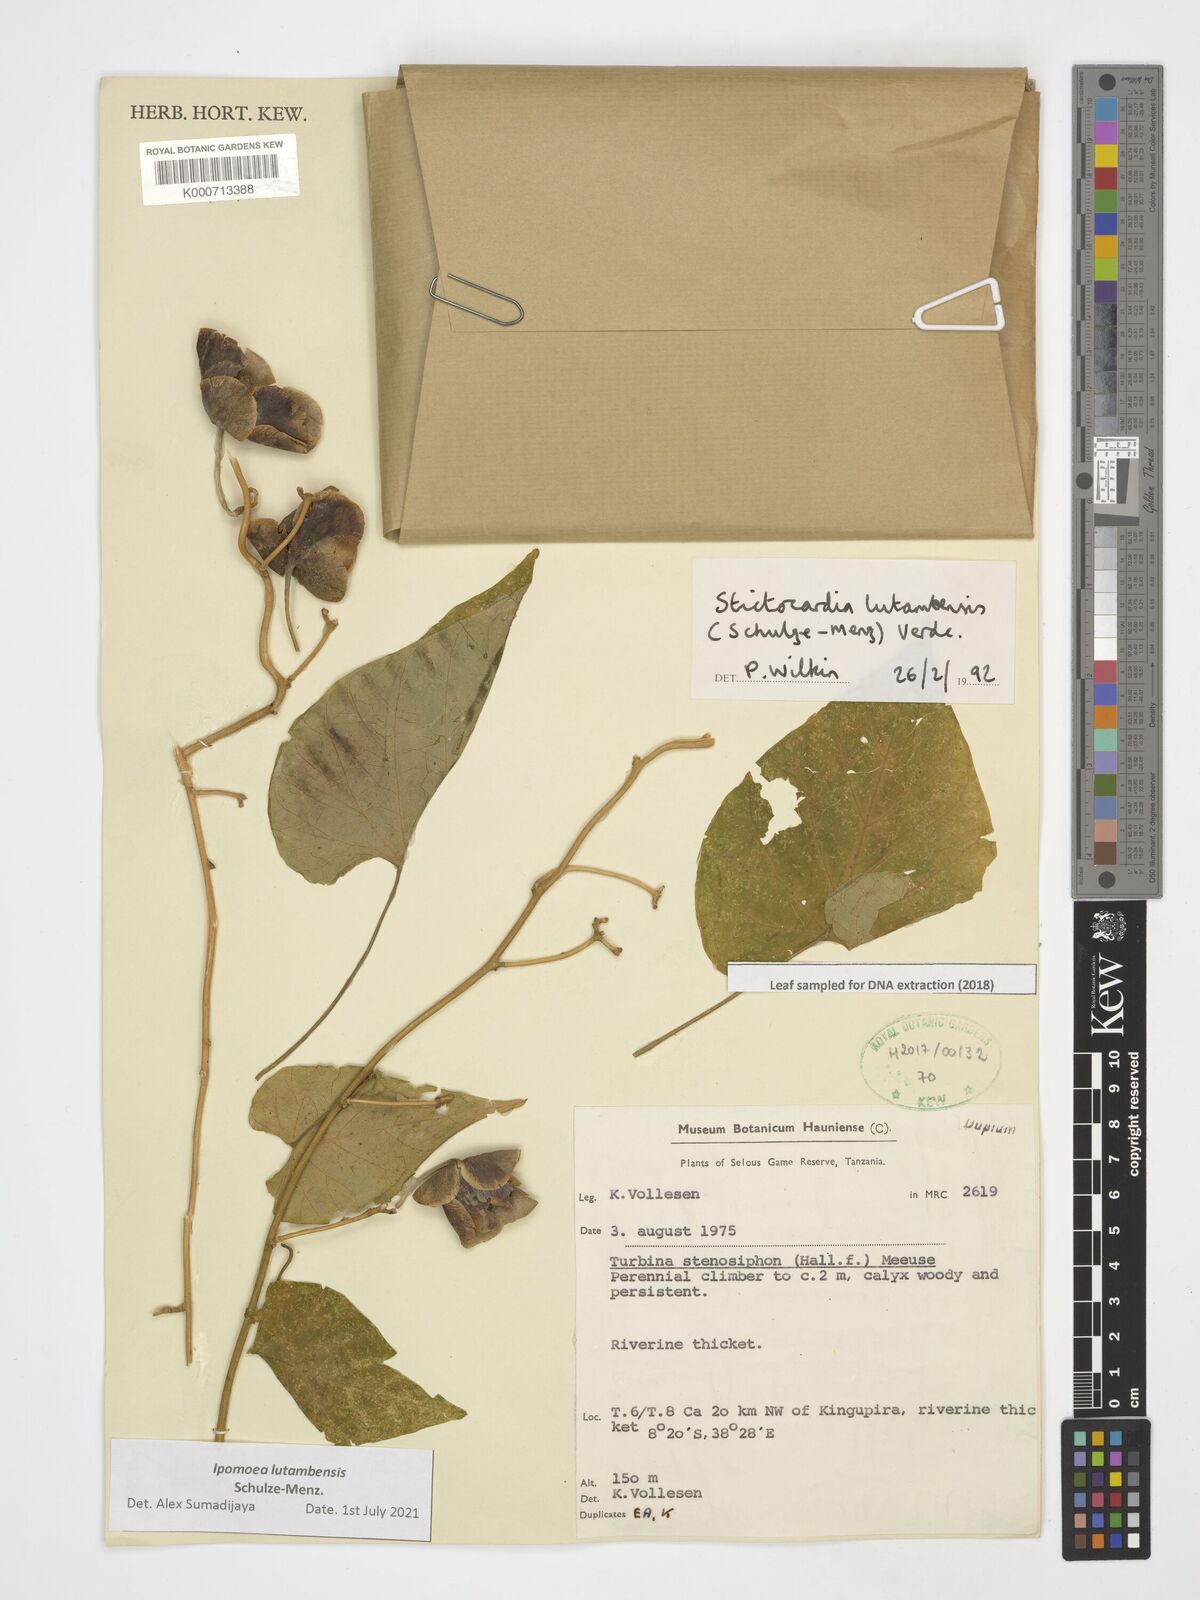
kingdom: Plantae
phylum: Tracheophyta
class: Magnoliopsida
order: Solanales
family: Convolvulaceae
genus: Stictocardia
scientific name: Stictocardia lutambensis
